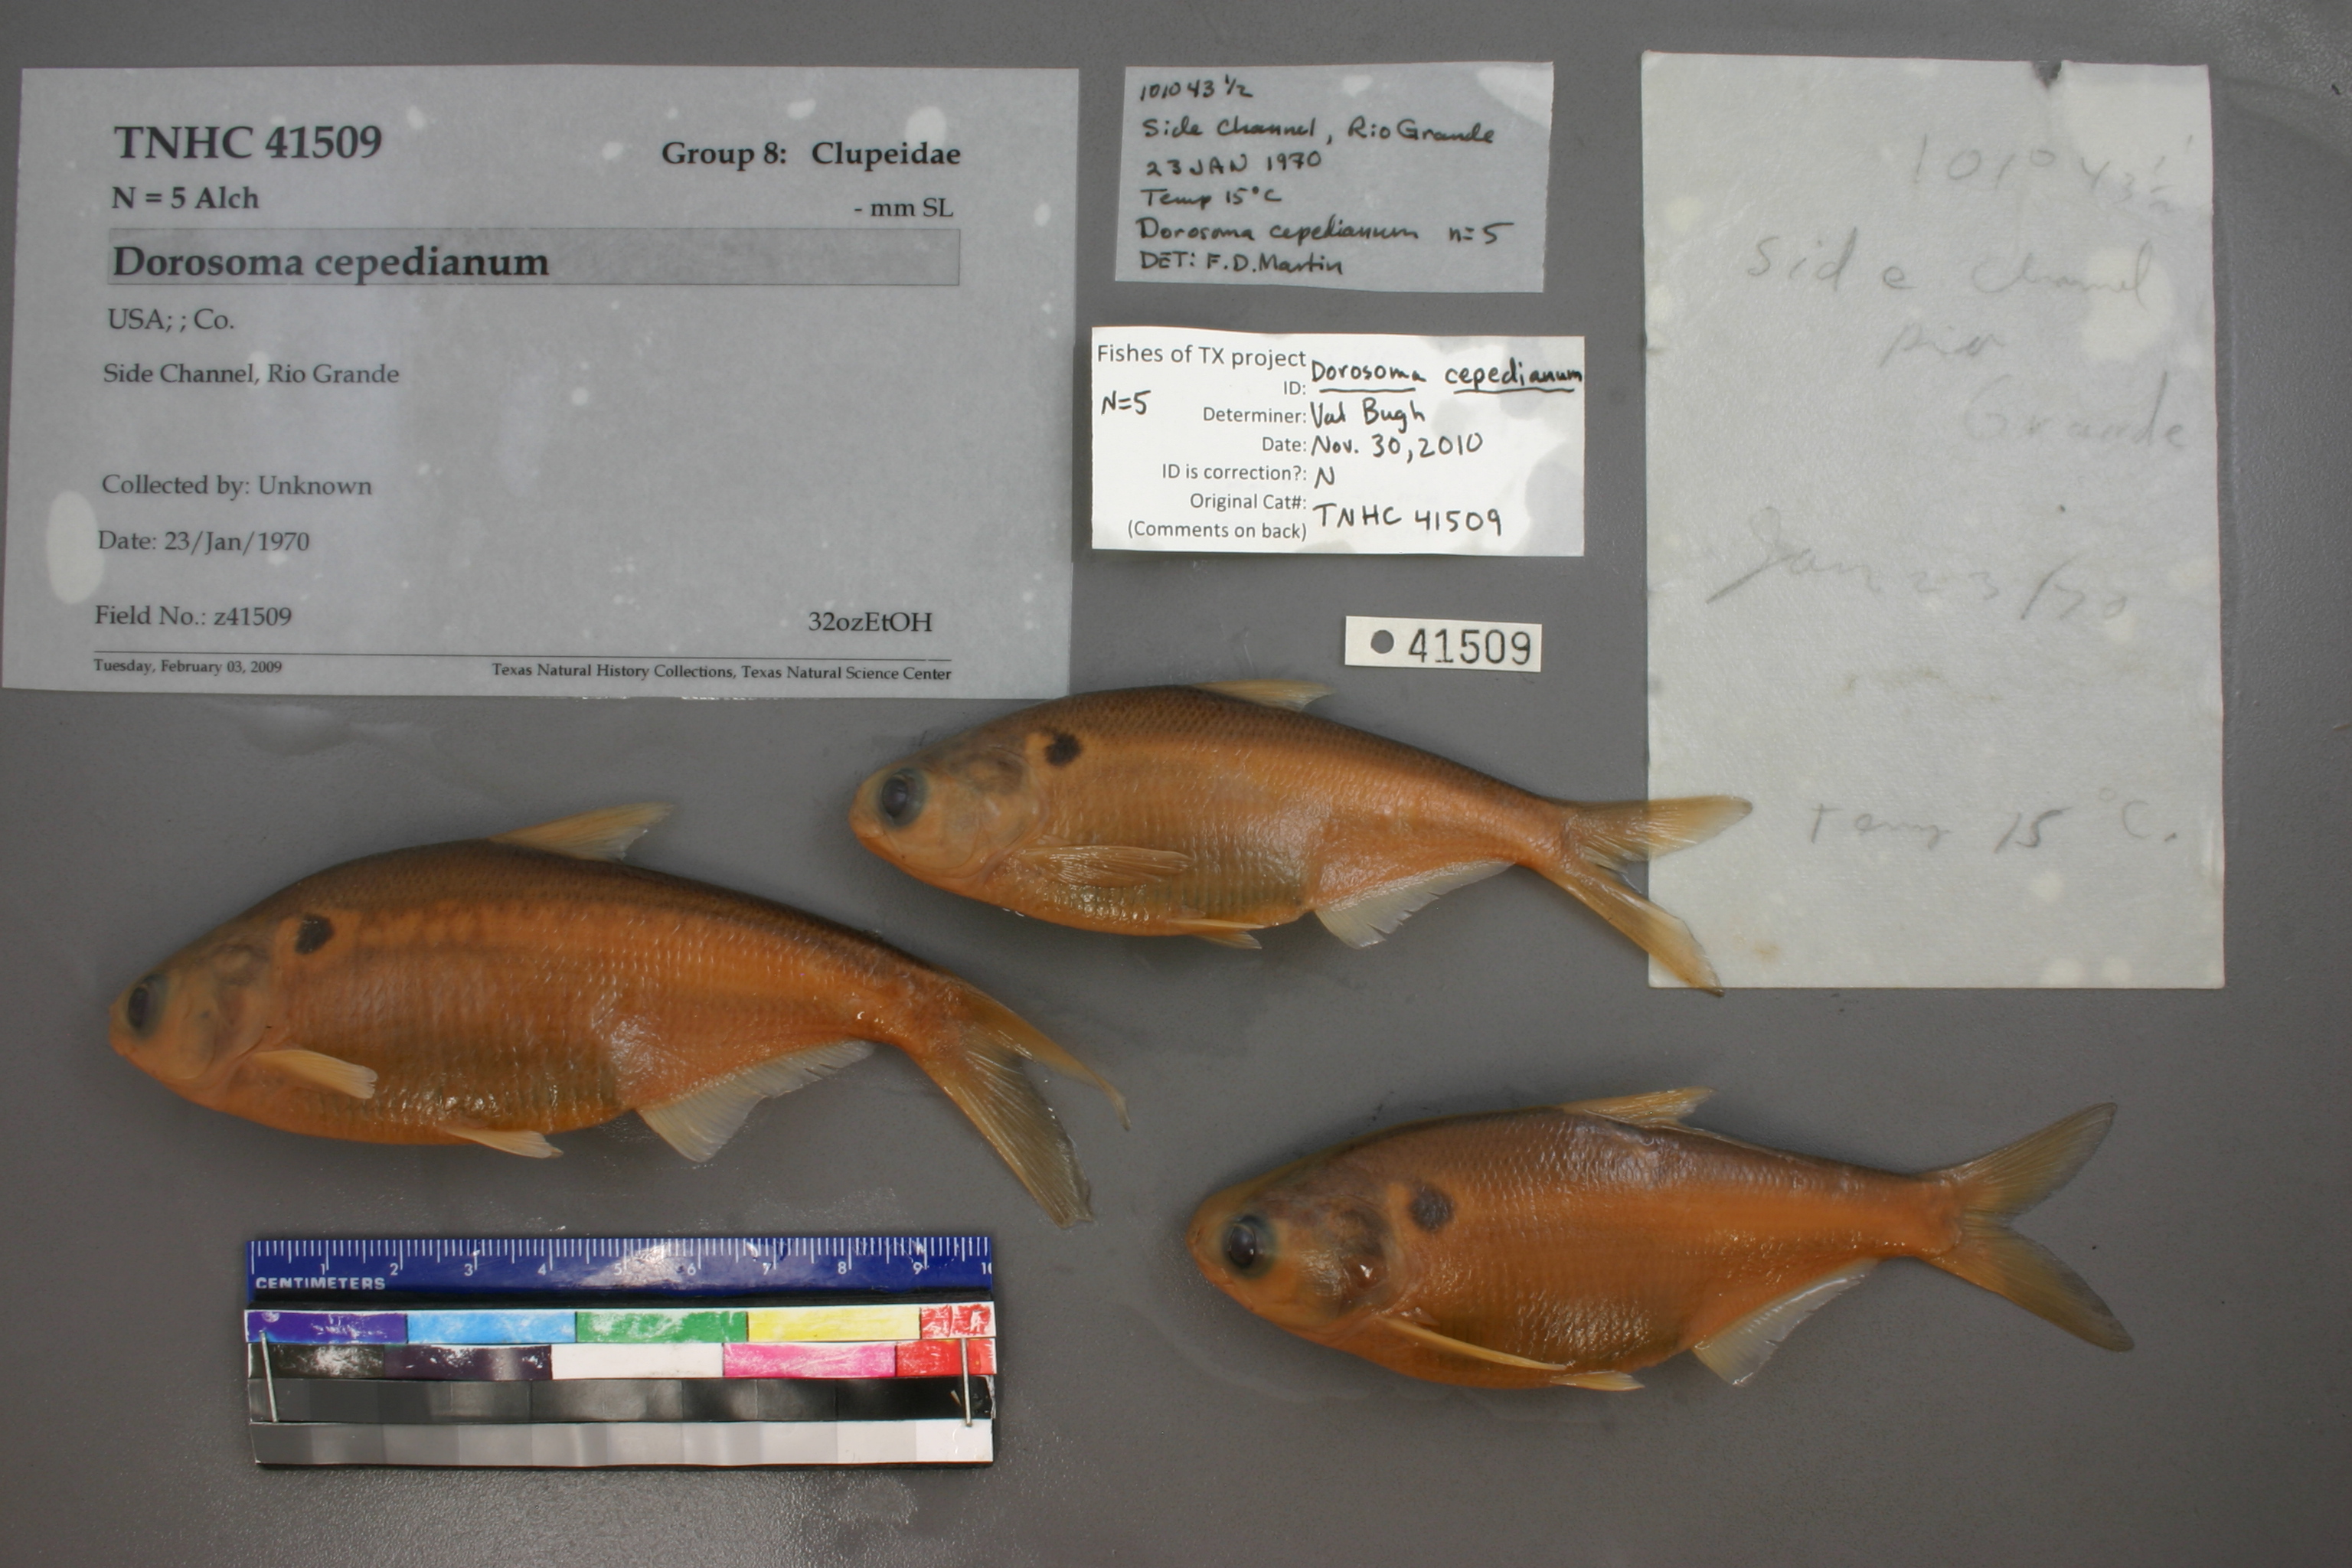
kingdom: Animalia
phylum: Chordata
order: Clupeiformes
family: Clupeidae
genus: Dorosoma
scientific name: Dorosoma cepedianum
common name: Gizzard shad
